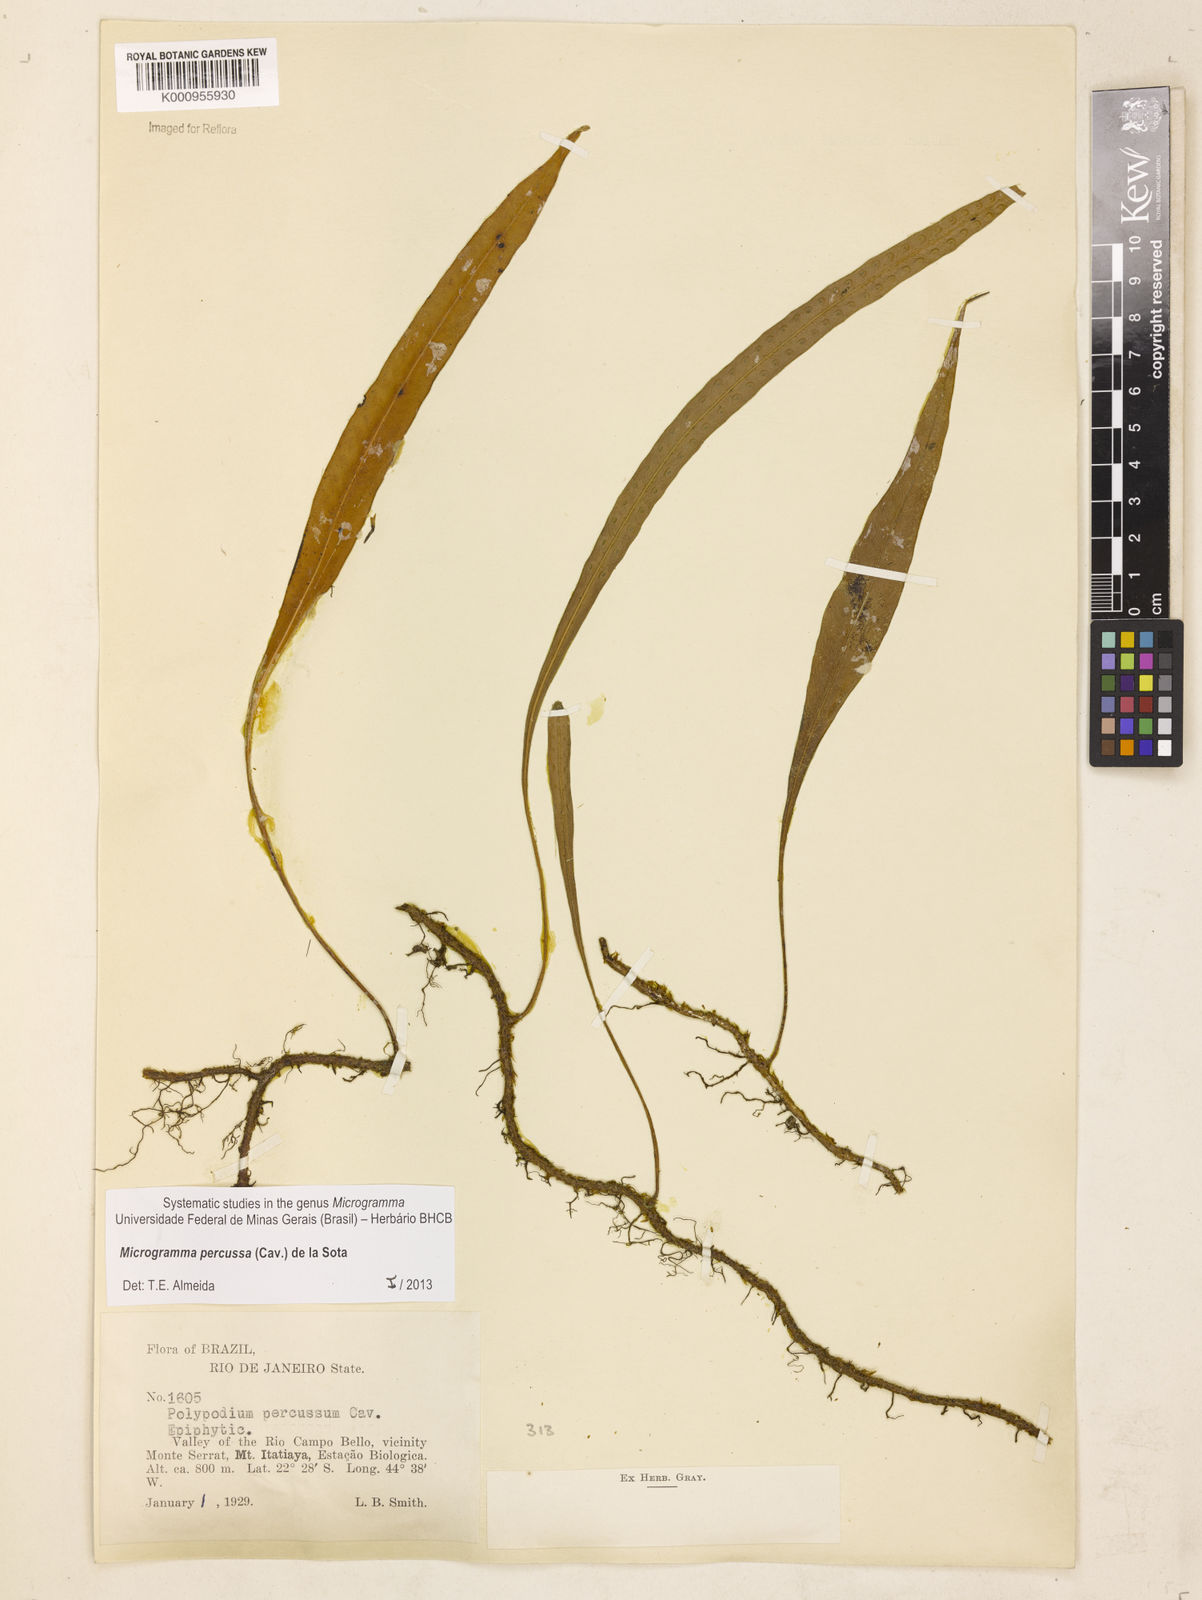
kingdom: Plantae
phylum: Tracheophyta
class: Polypodiopsida
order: Polypodiales
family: Polypodiaceae
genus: Microgramma
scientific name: Microgramma percussa
